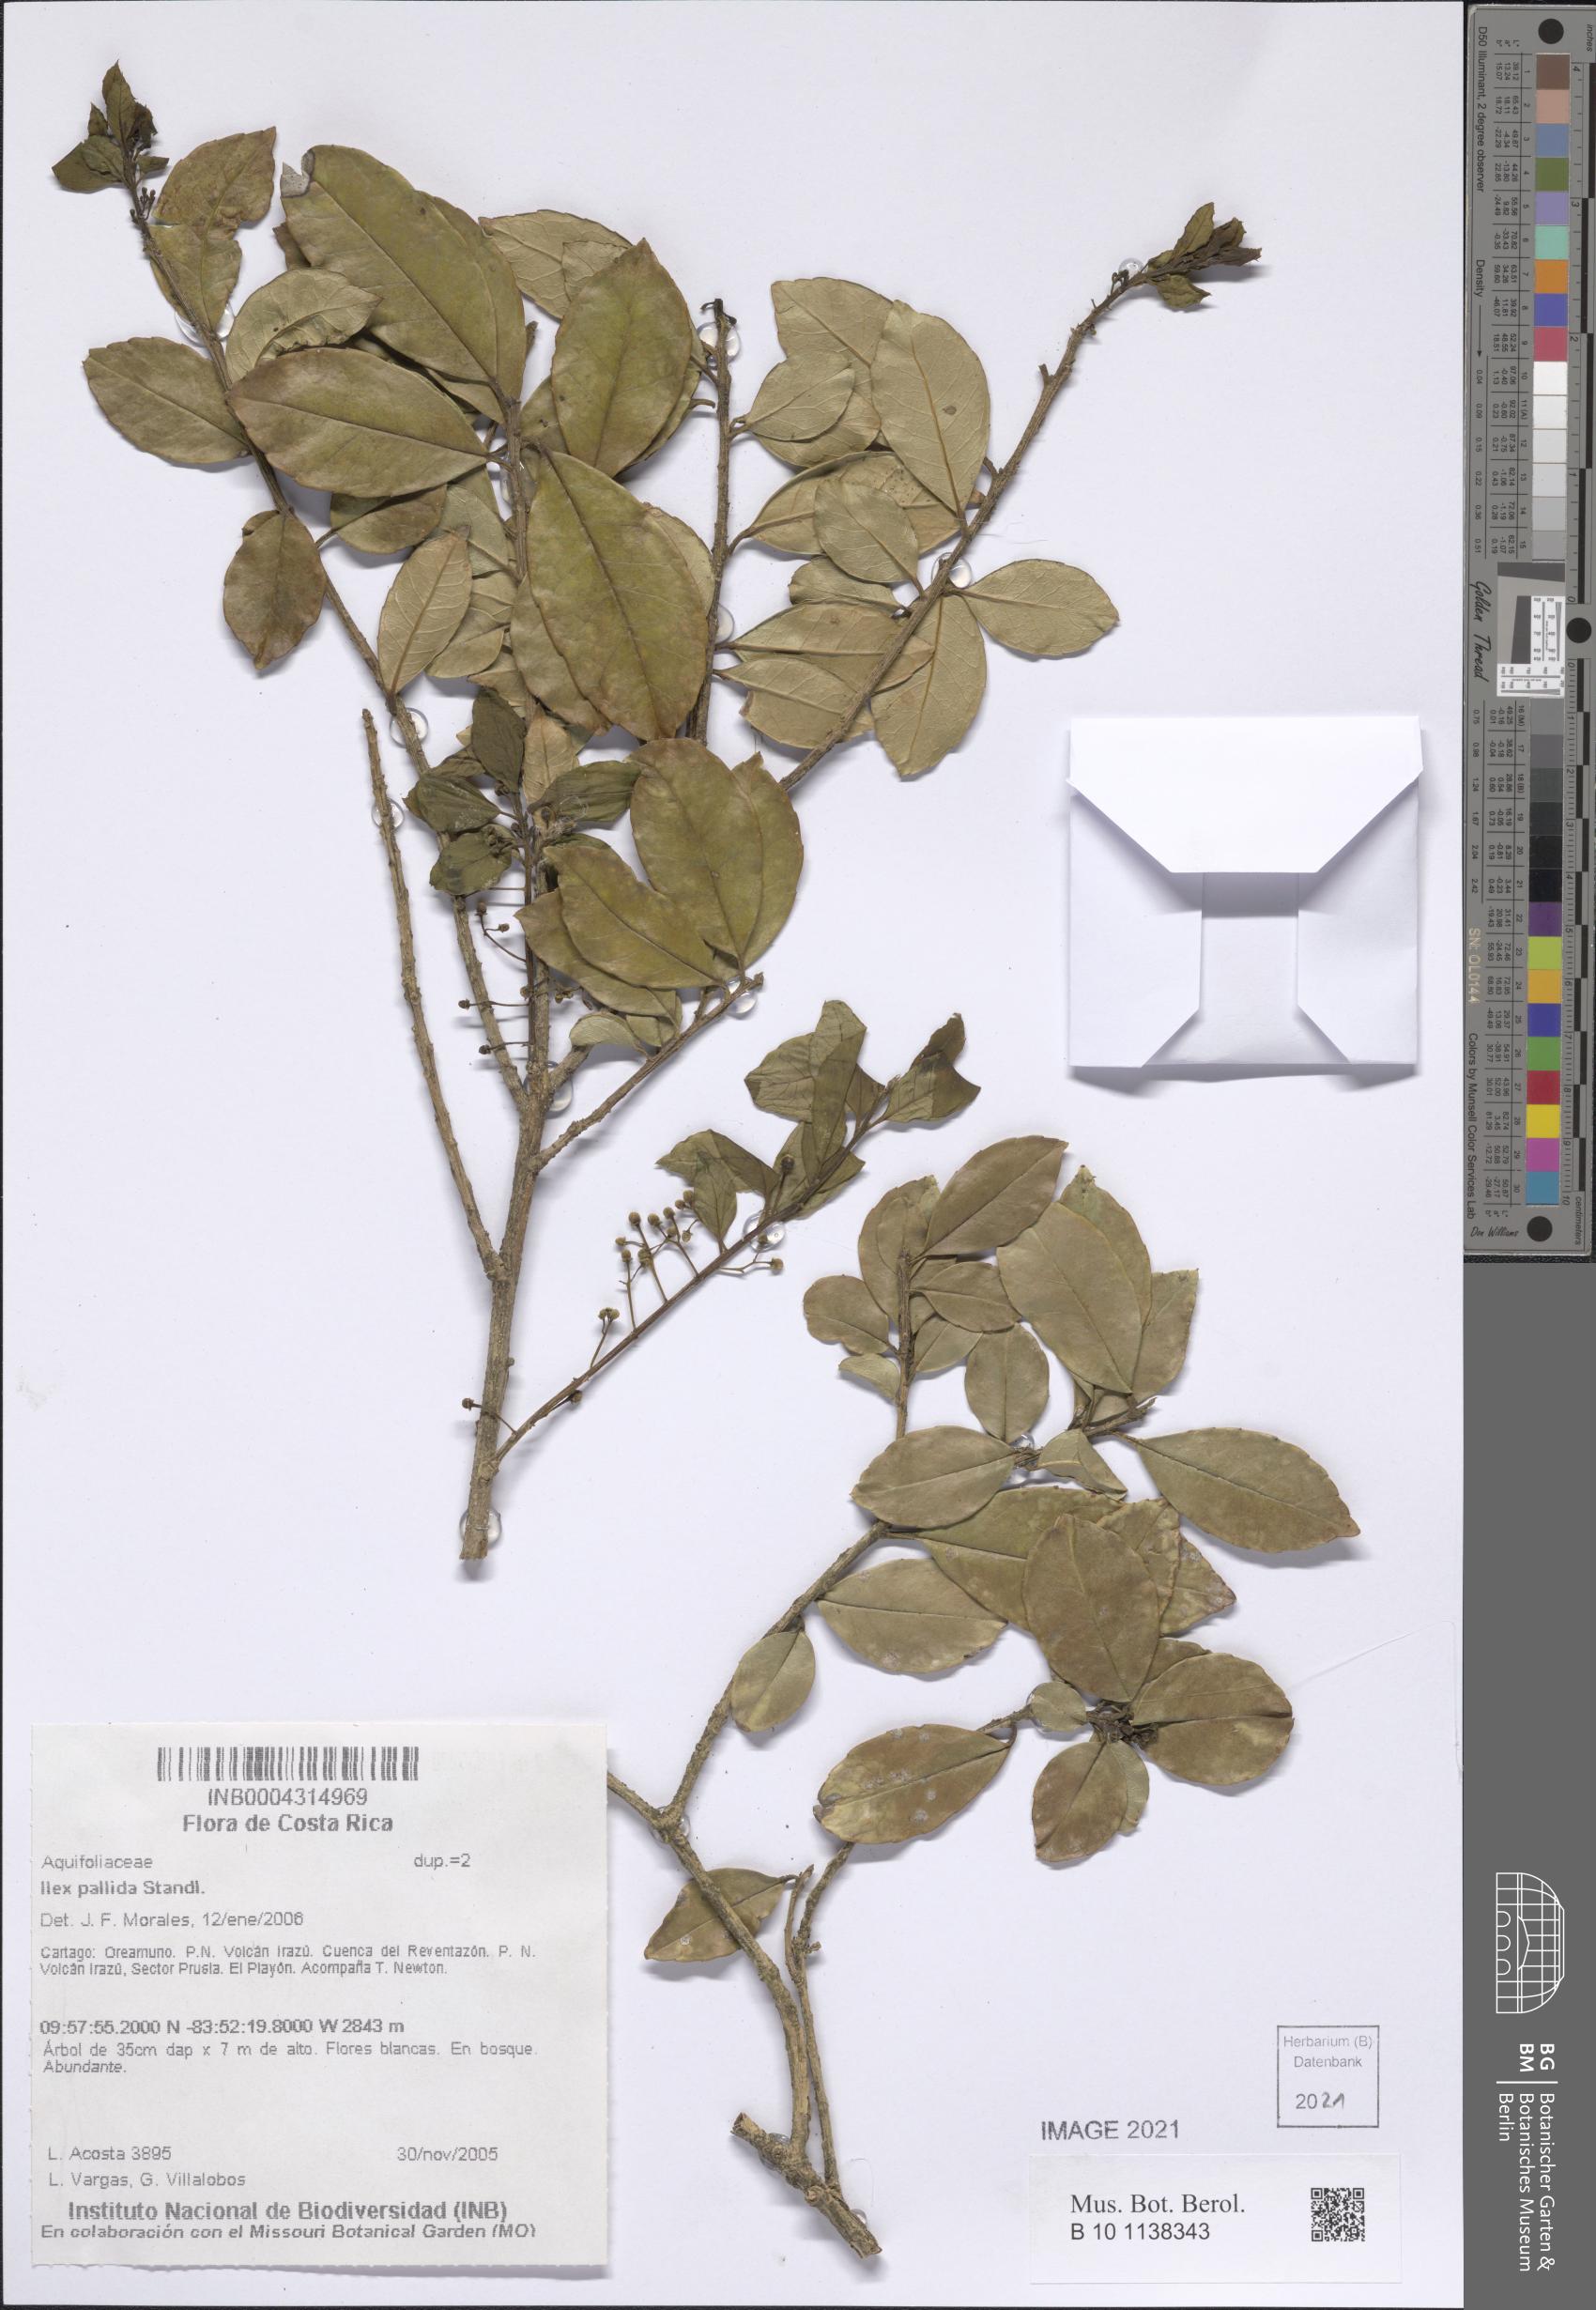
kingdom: Plantae
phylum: Tracheophyta
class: Magnoliopsida
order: Aquifoliales
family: Aquifoliaceae
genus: Ilex
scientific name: Ilex pallida
